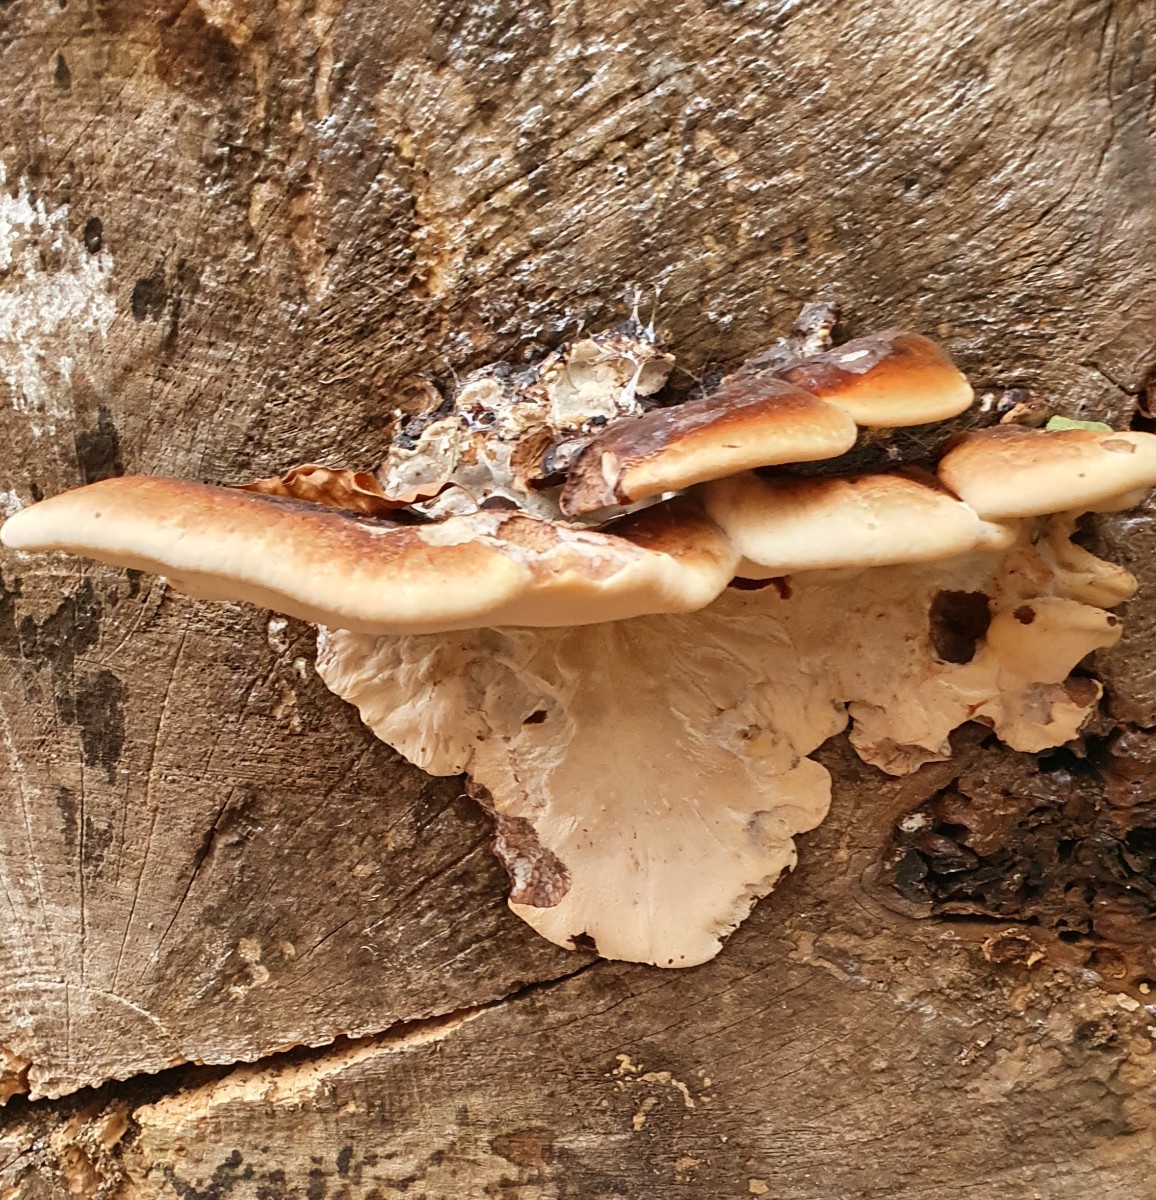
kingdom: Fungi
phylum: Basidiomycota
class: Agaricomycetes
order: Polyporales
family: Ischnodermataceae
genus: Ischnoderma
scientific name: Ischnoderma resinosum
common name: løv-tjæreporesvamp
